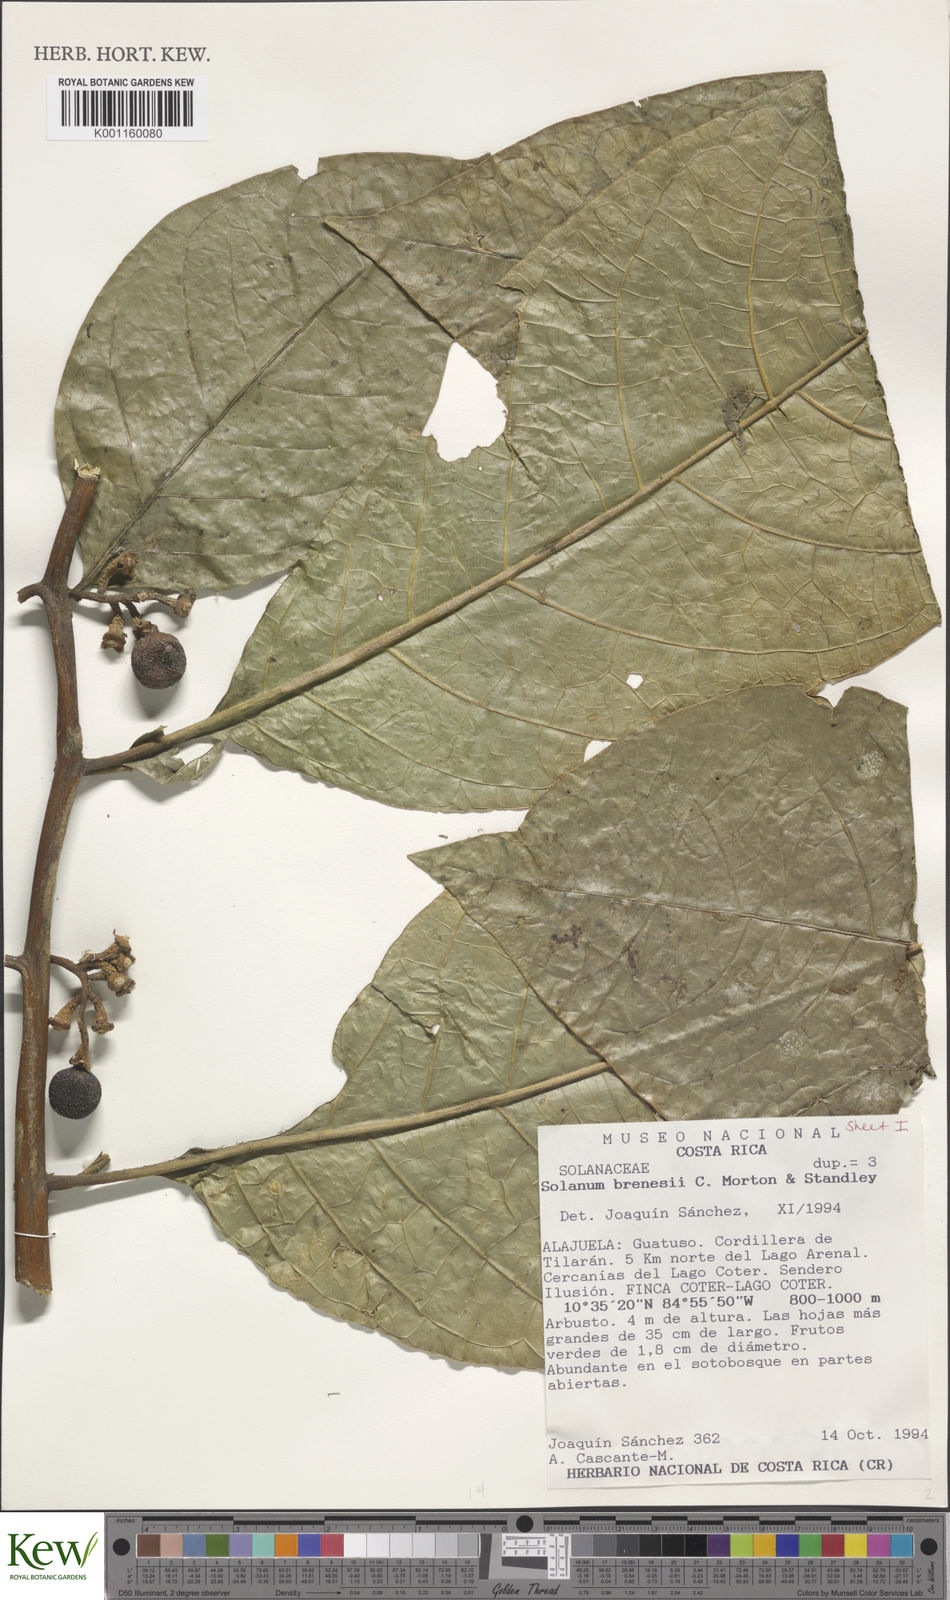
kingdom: Plantae
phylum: Tracheophyta
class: Magnoliopsida
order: Solanales
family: Solanaceae
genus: Solanum
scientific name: Solanum rovirosanum
